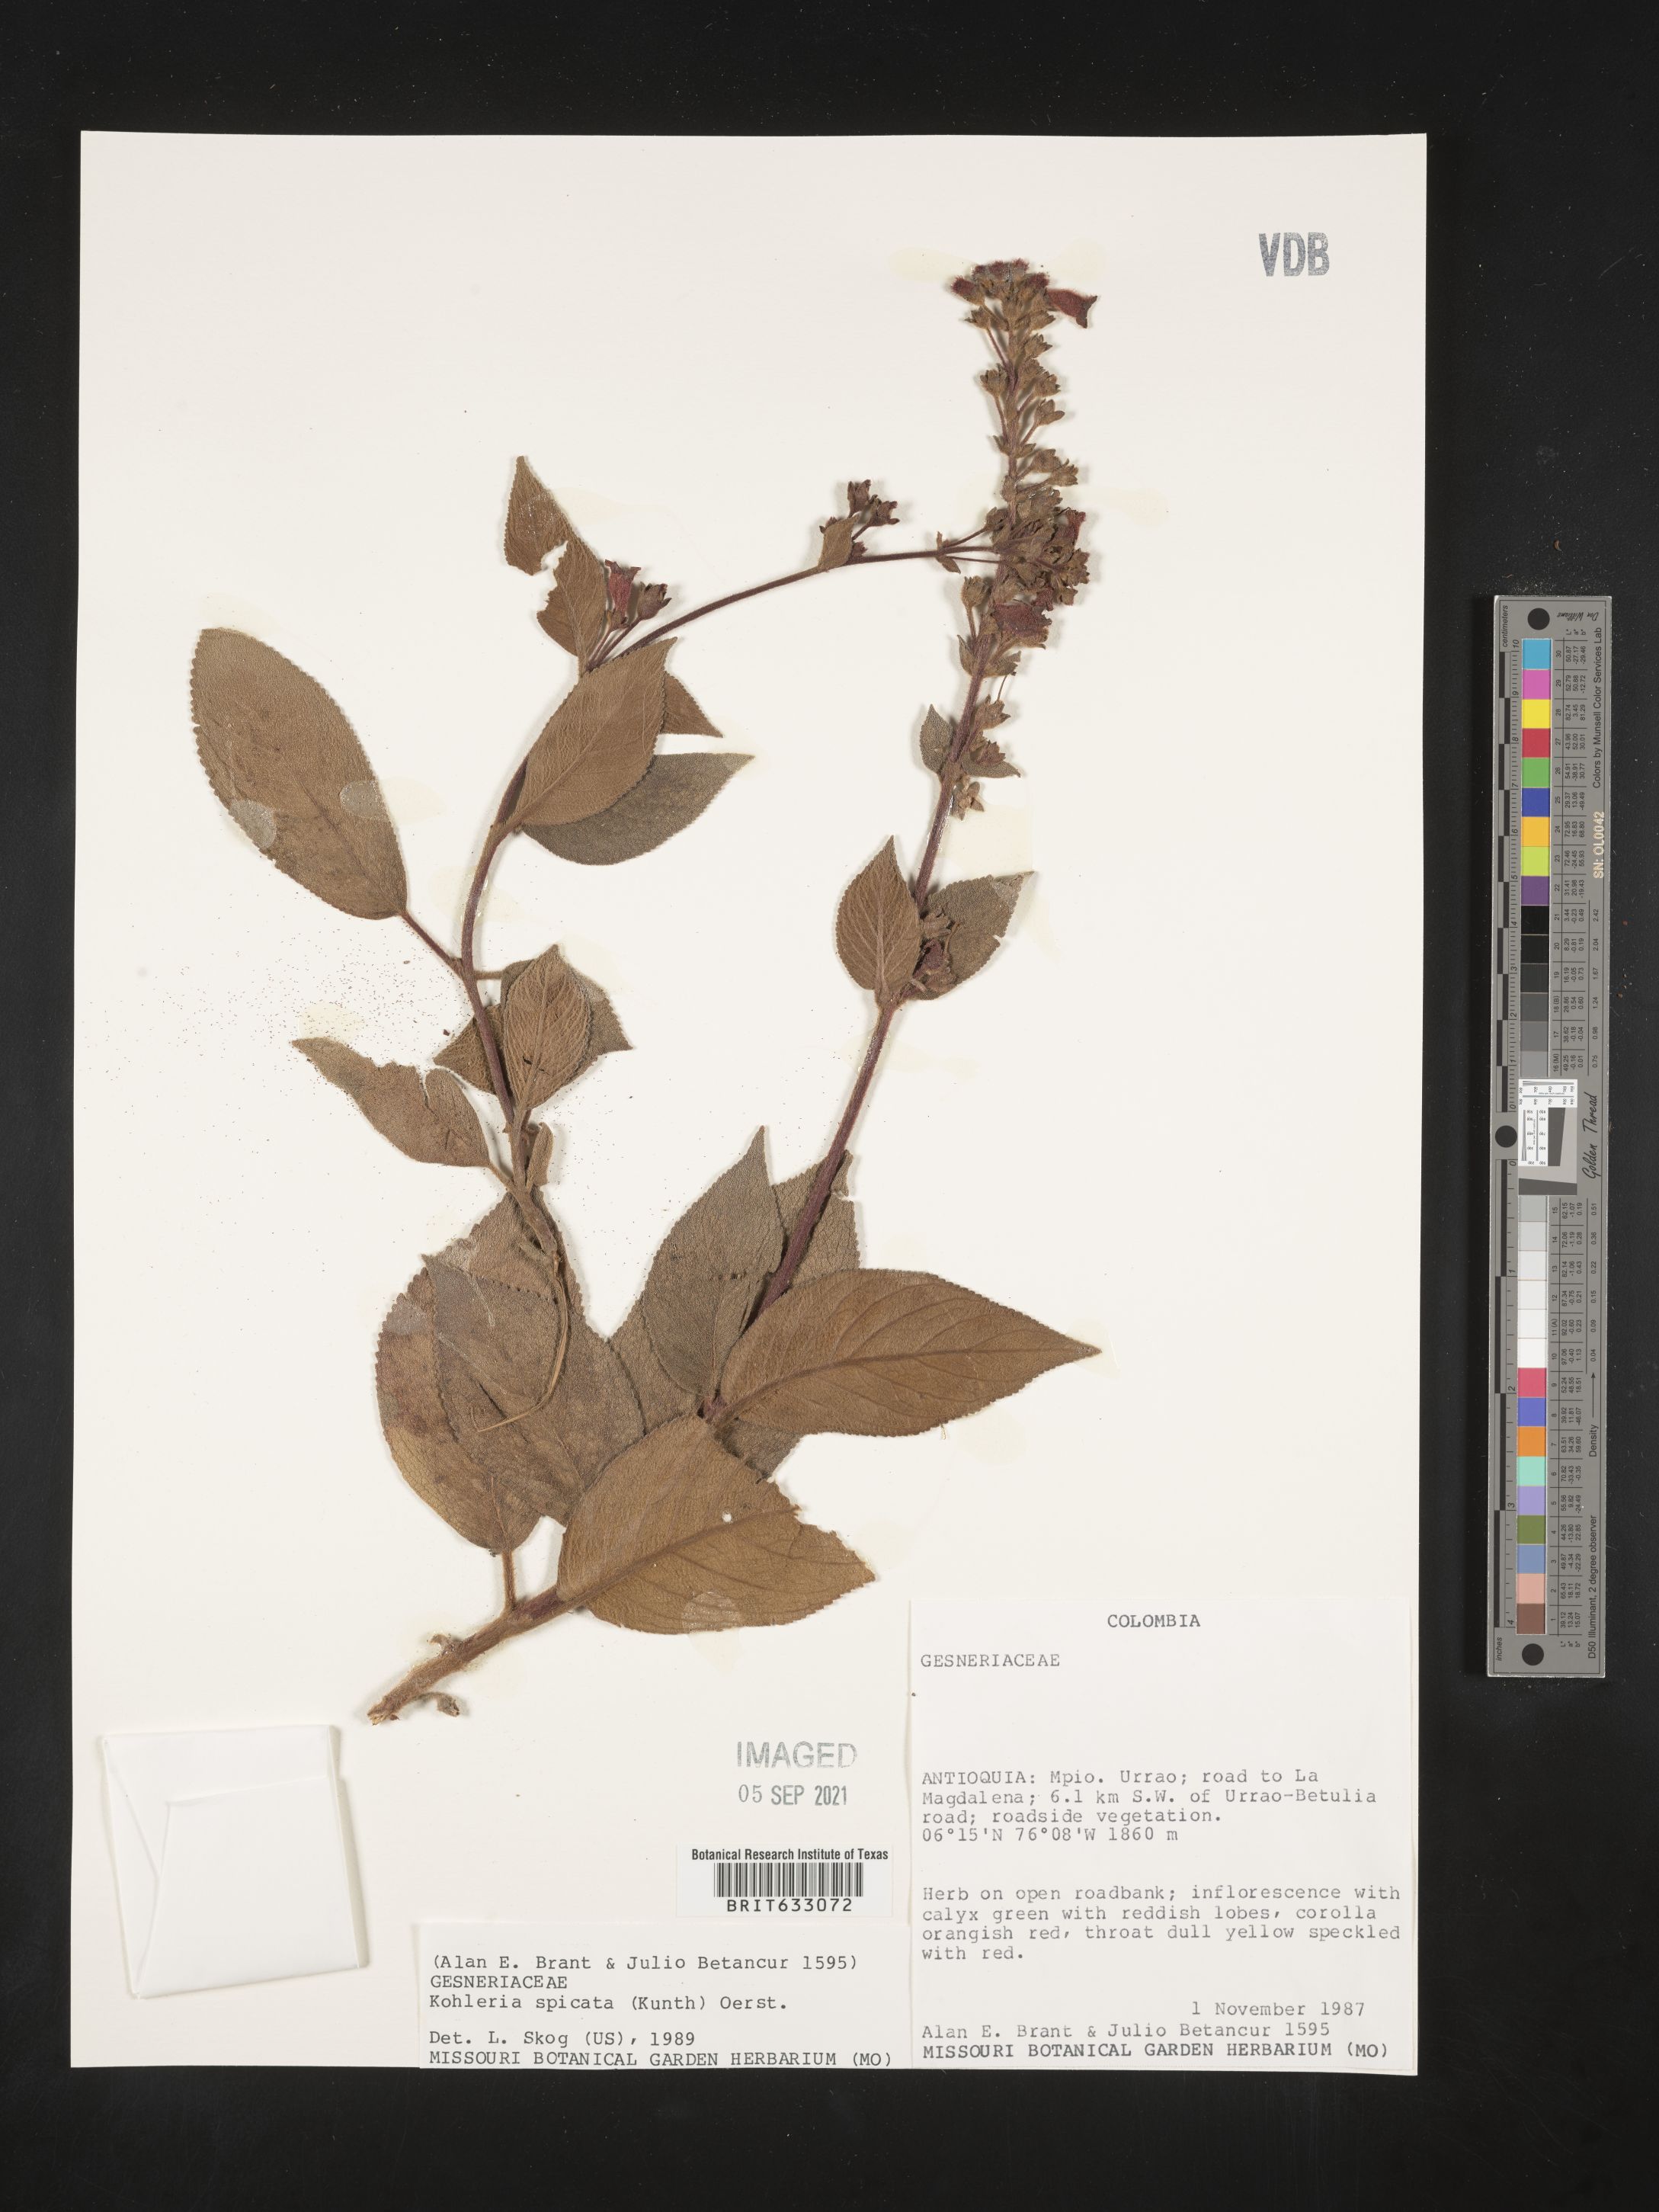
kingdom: Plantae
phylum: Tracheophyta
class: Magnoliopsida
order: Lamiales
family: Gesneriaceae
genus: Kohleria
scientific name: Kohleria
